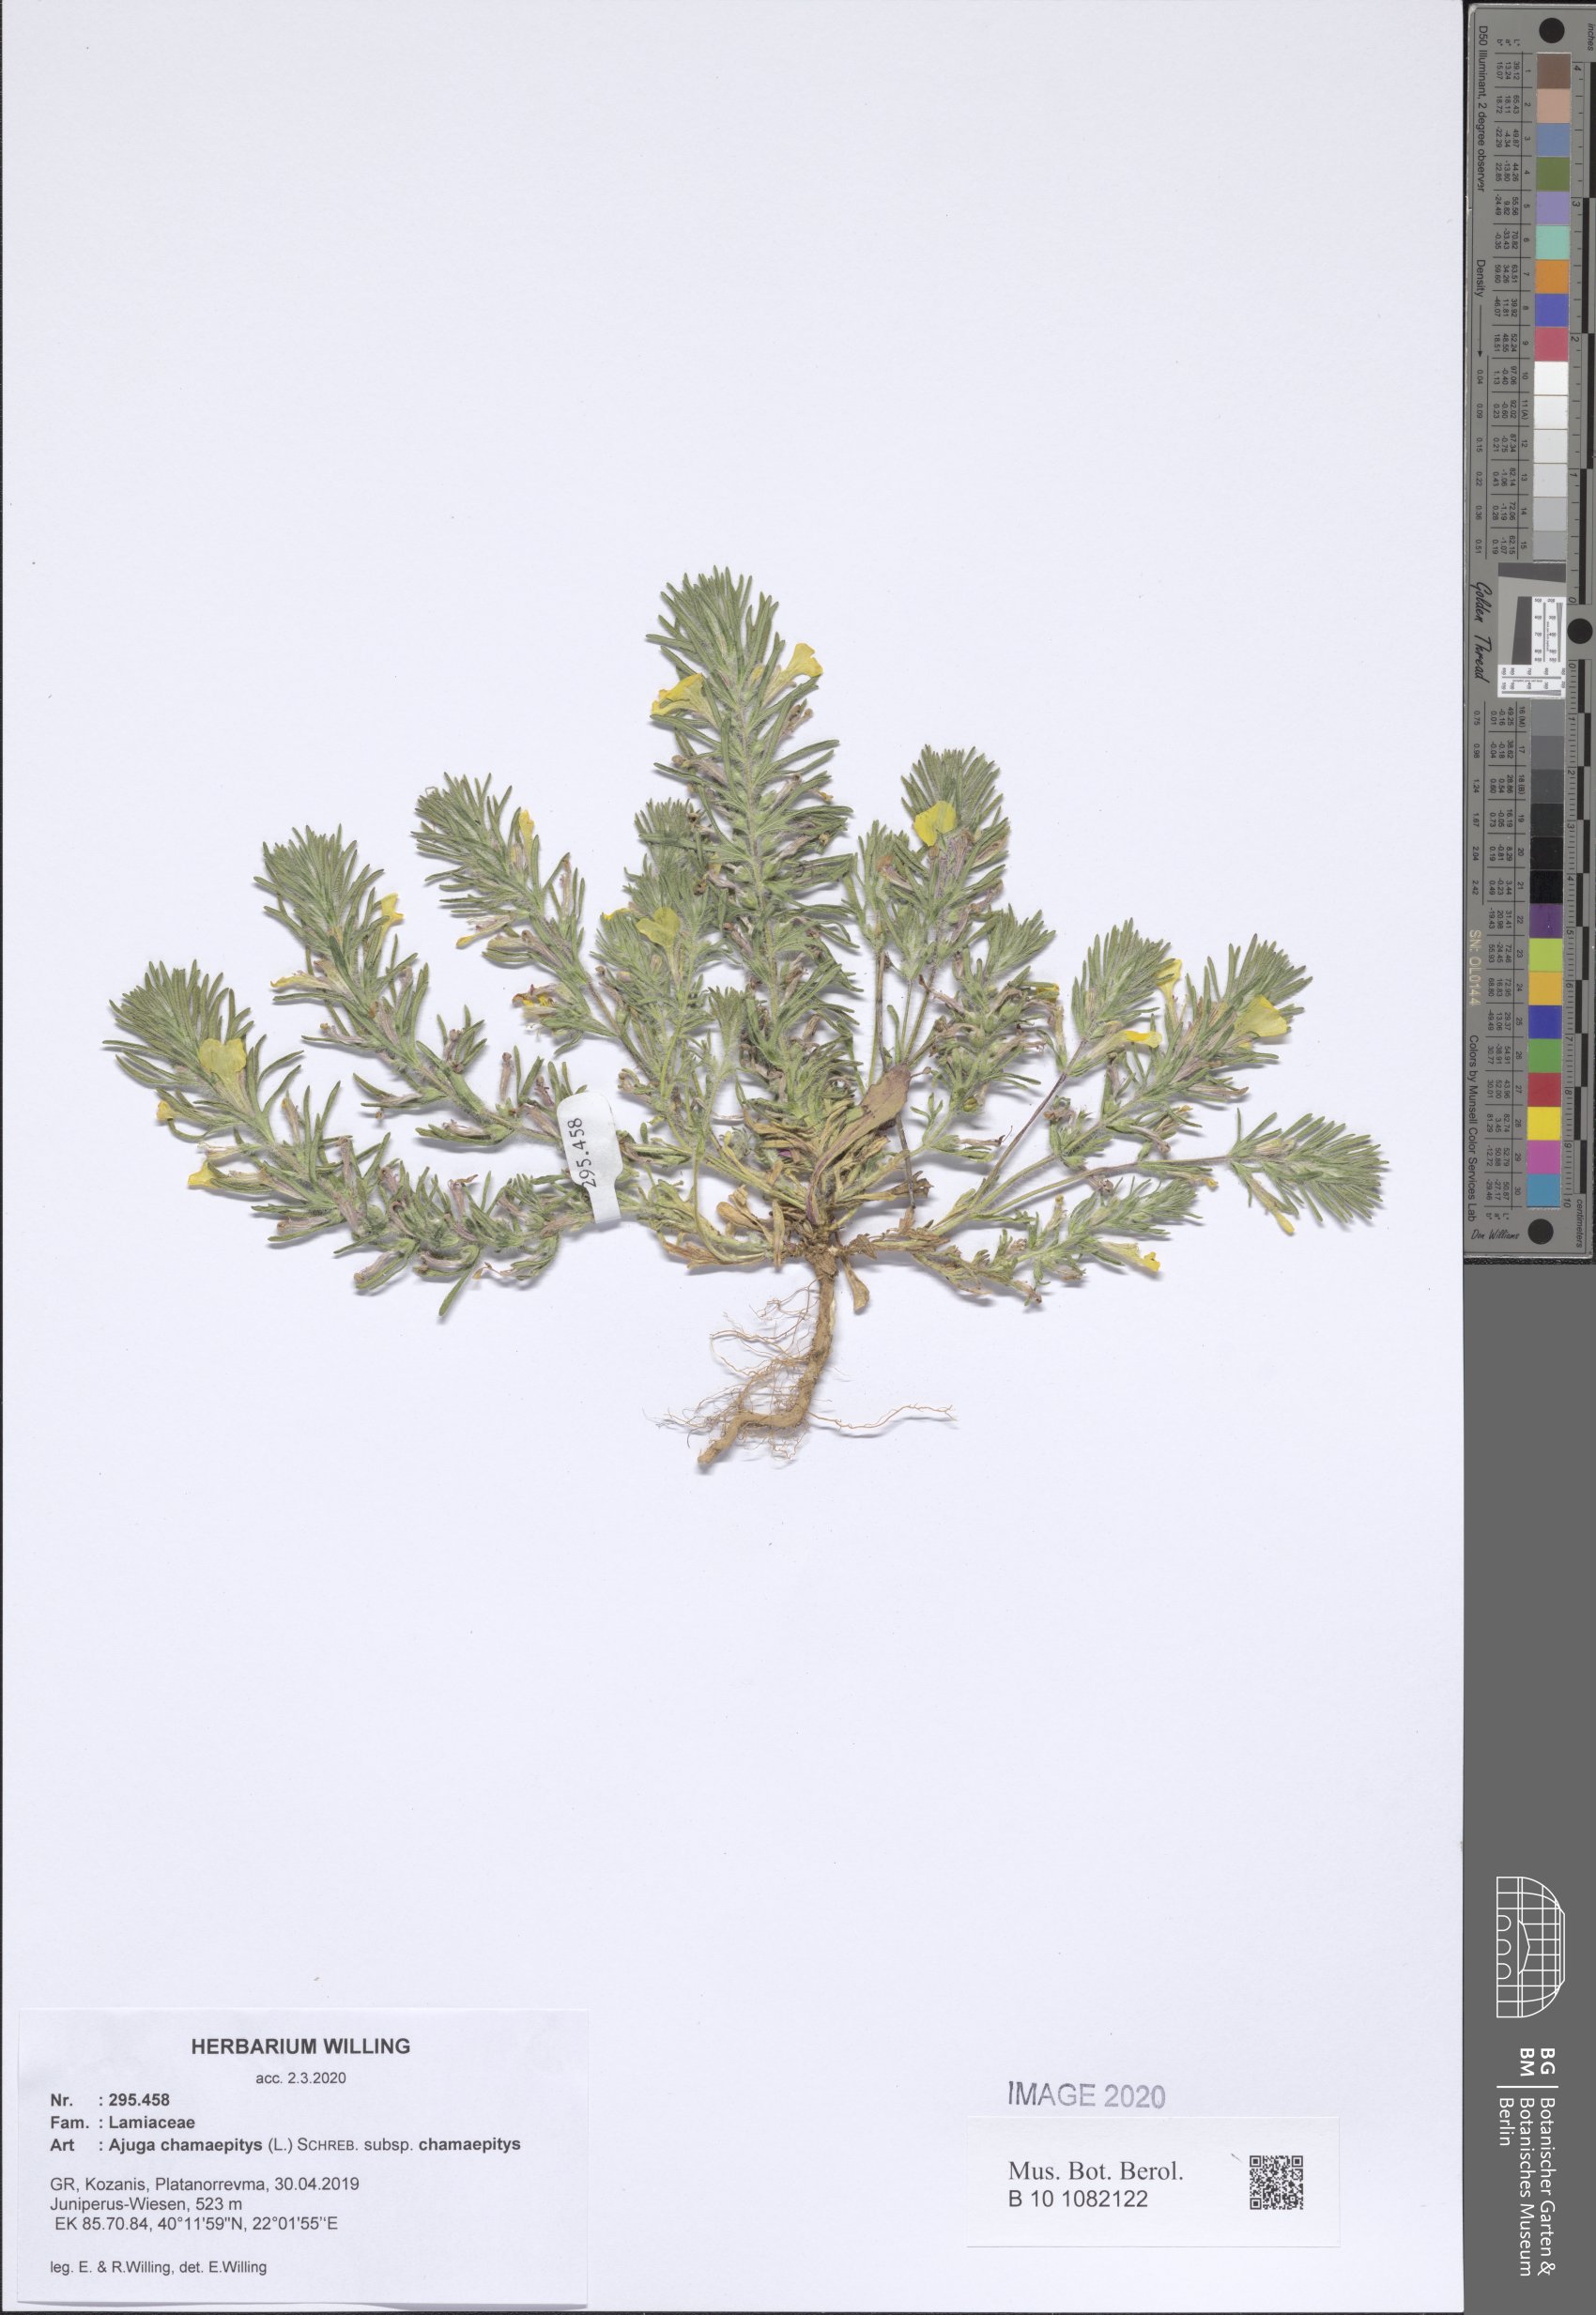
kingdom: Plantae
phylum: Tracheophyta
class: Magnoliopsida
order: Lamiales
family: Lamiaceae
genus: Ajuga
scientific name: Ajuga chamaepitys
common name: Ground-pine
